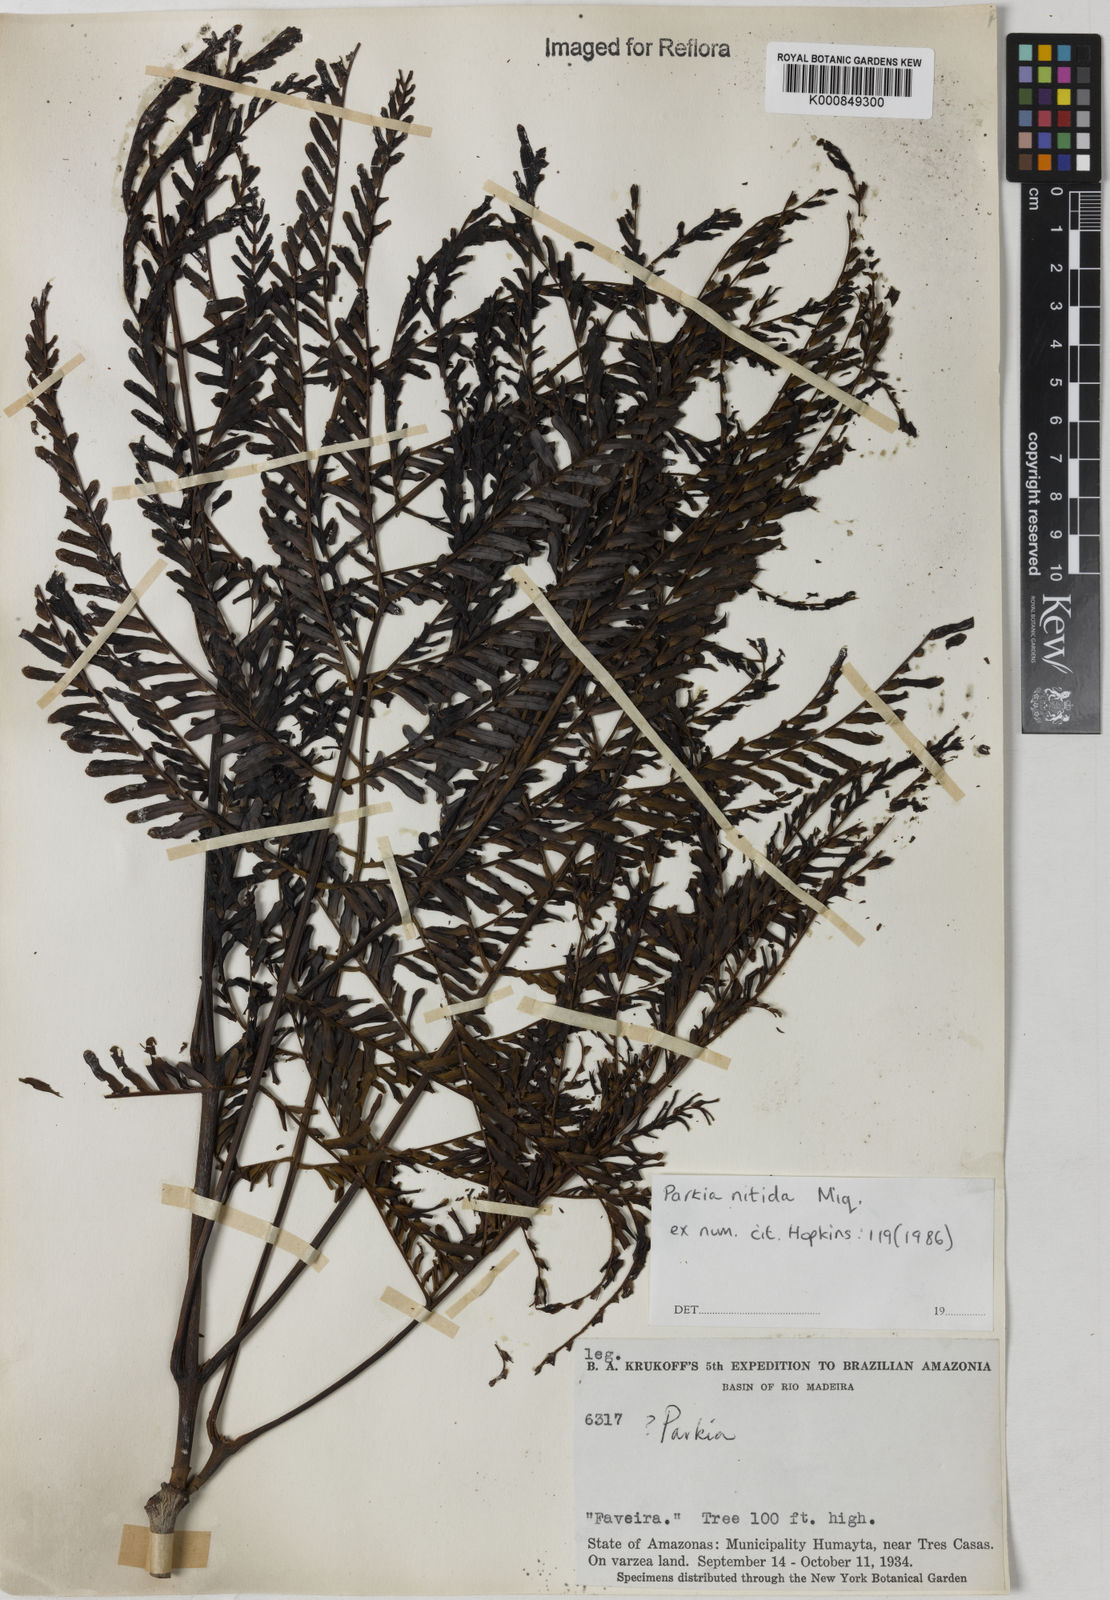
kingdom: Plantae
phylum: Tracheophyta
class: Magnoliopsida
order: Fabales
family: Fabaceae
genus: Parkia
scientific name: Parkia nitida
